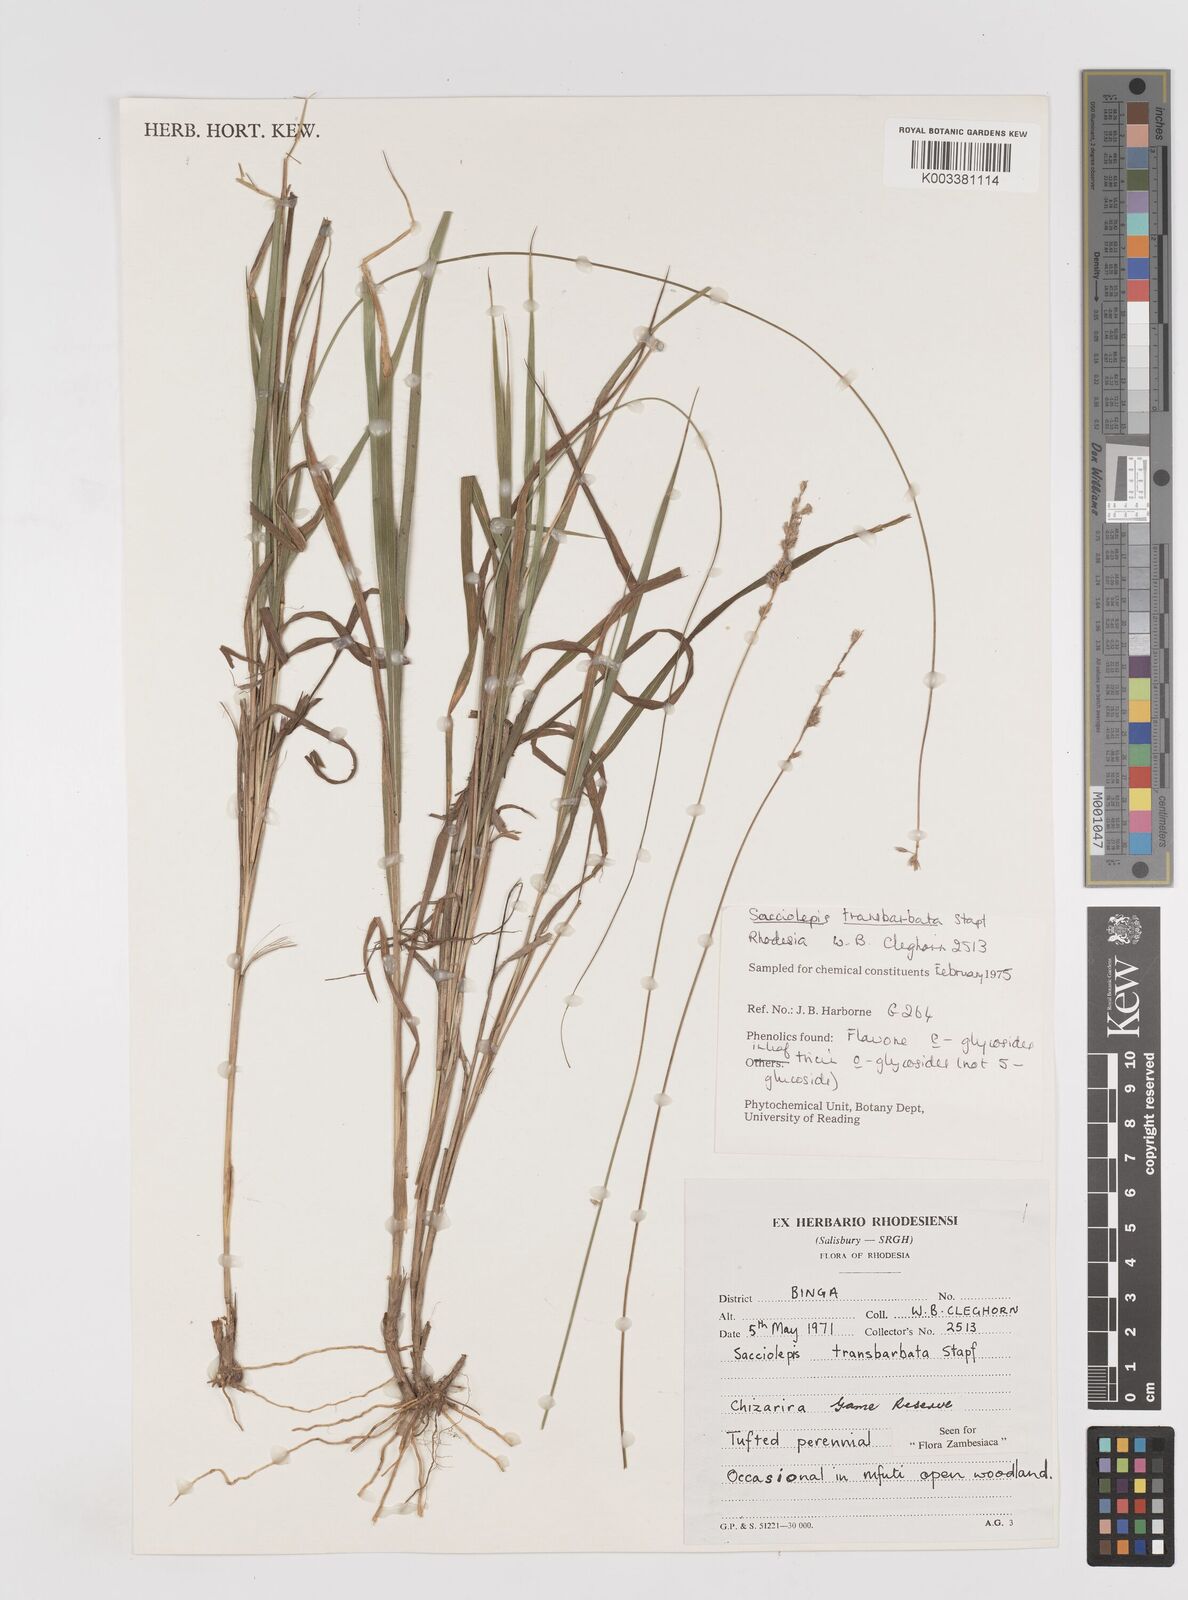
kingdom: Plantae
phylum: Tracheophyta
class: Liliopsida
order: Poales
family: Poaceae
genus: Sacciolepis
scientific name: Sacciolepis transbarbata
